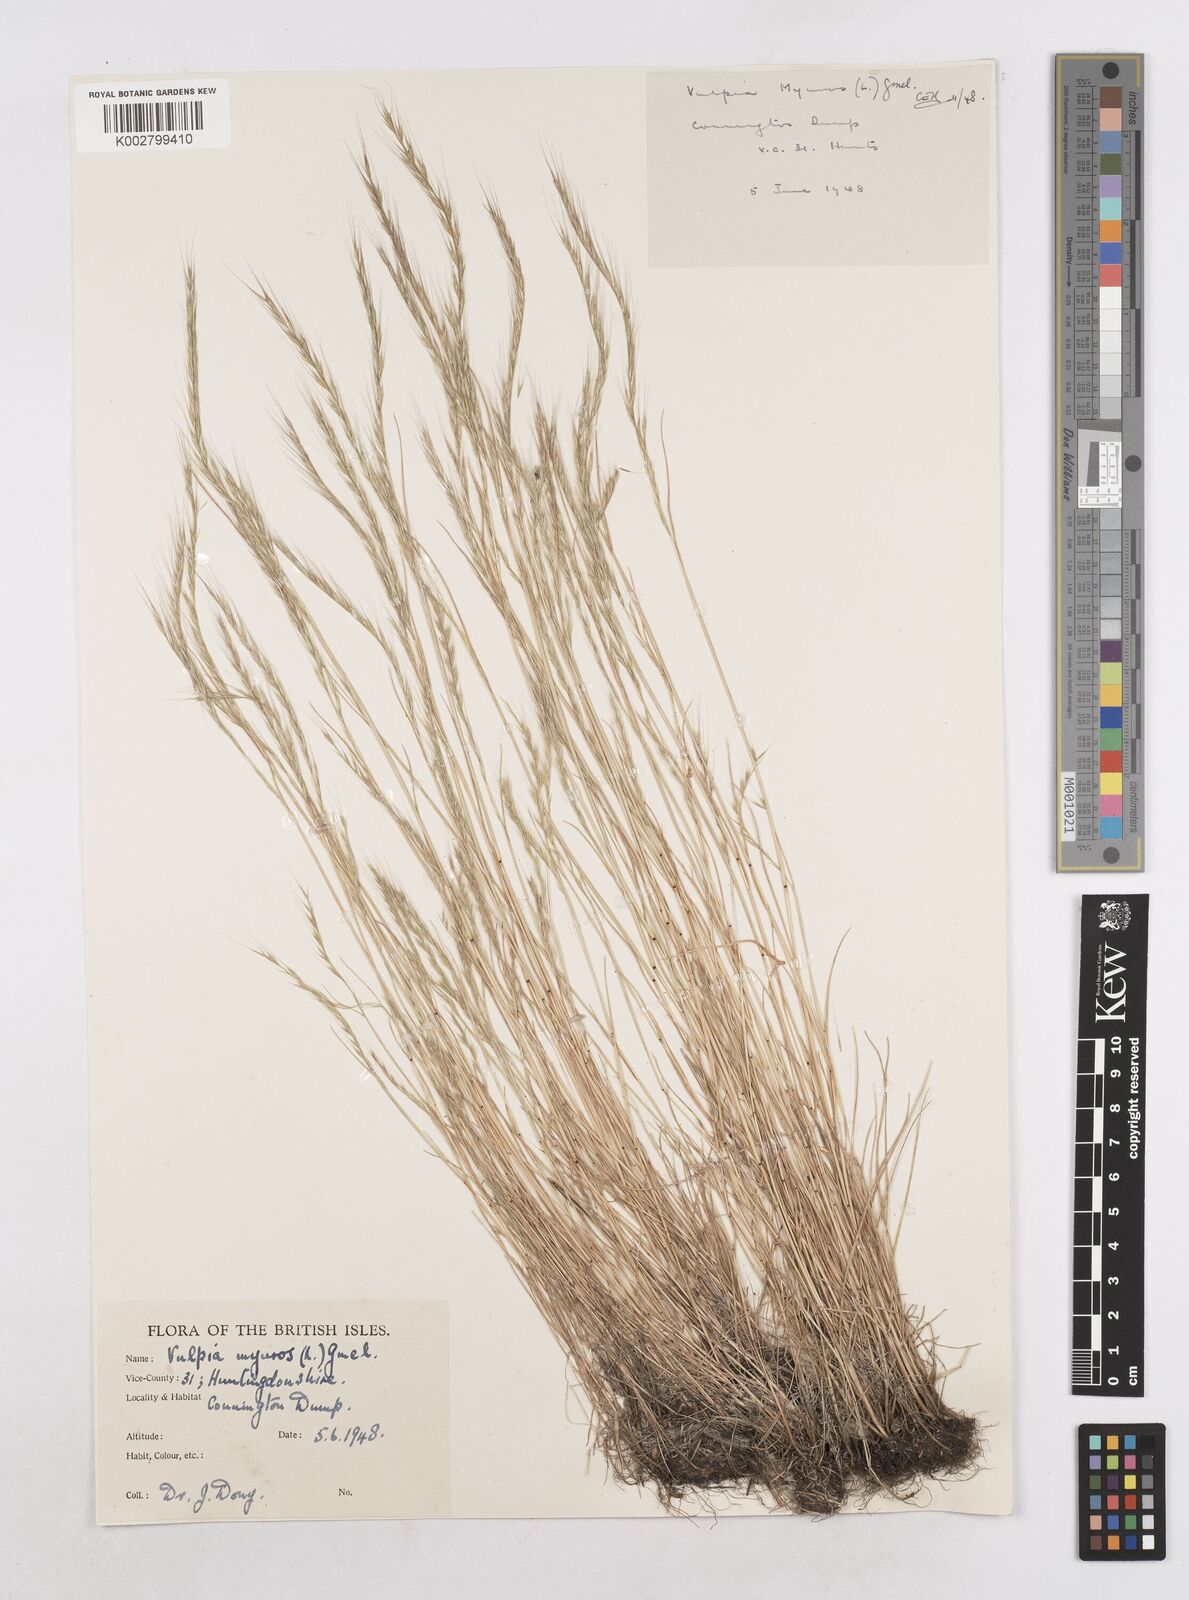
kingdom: Plantae
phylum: Tracheophyta
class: Liliopsida
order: Poales
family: Poaceae
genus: Festuca
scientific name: Festuca myuros
